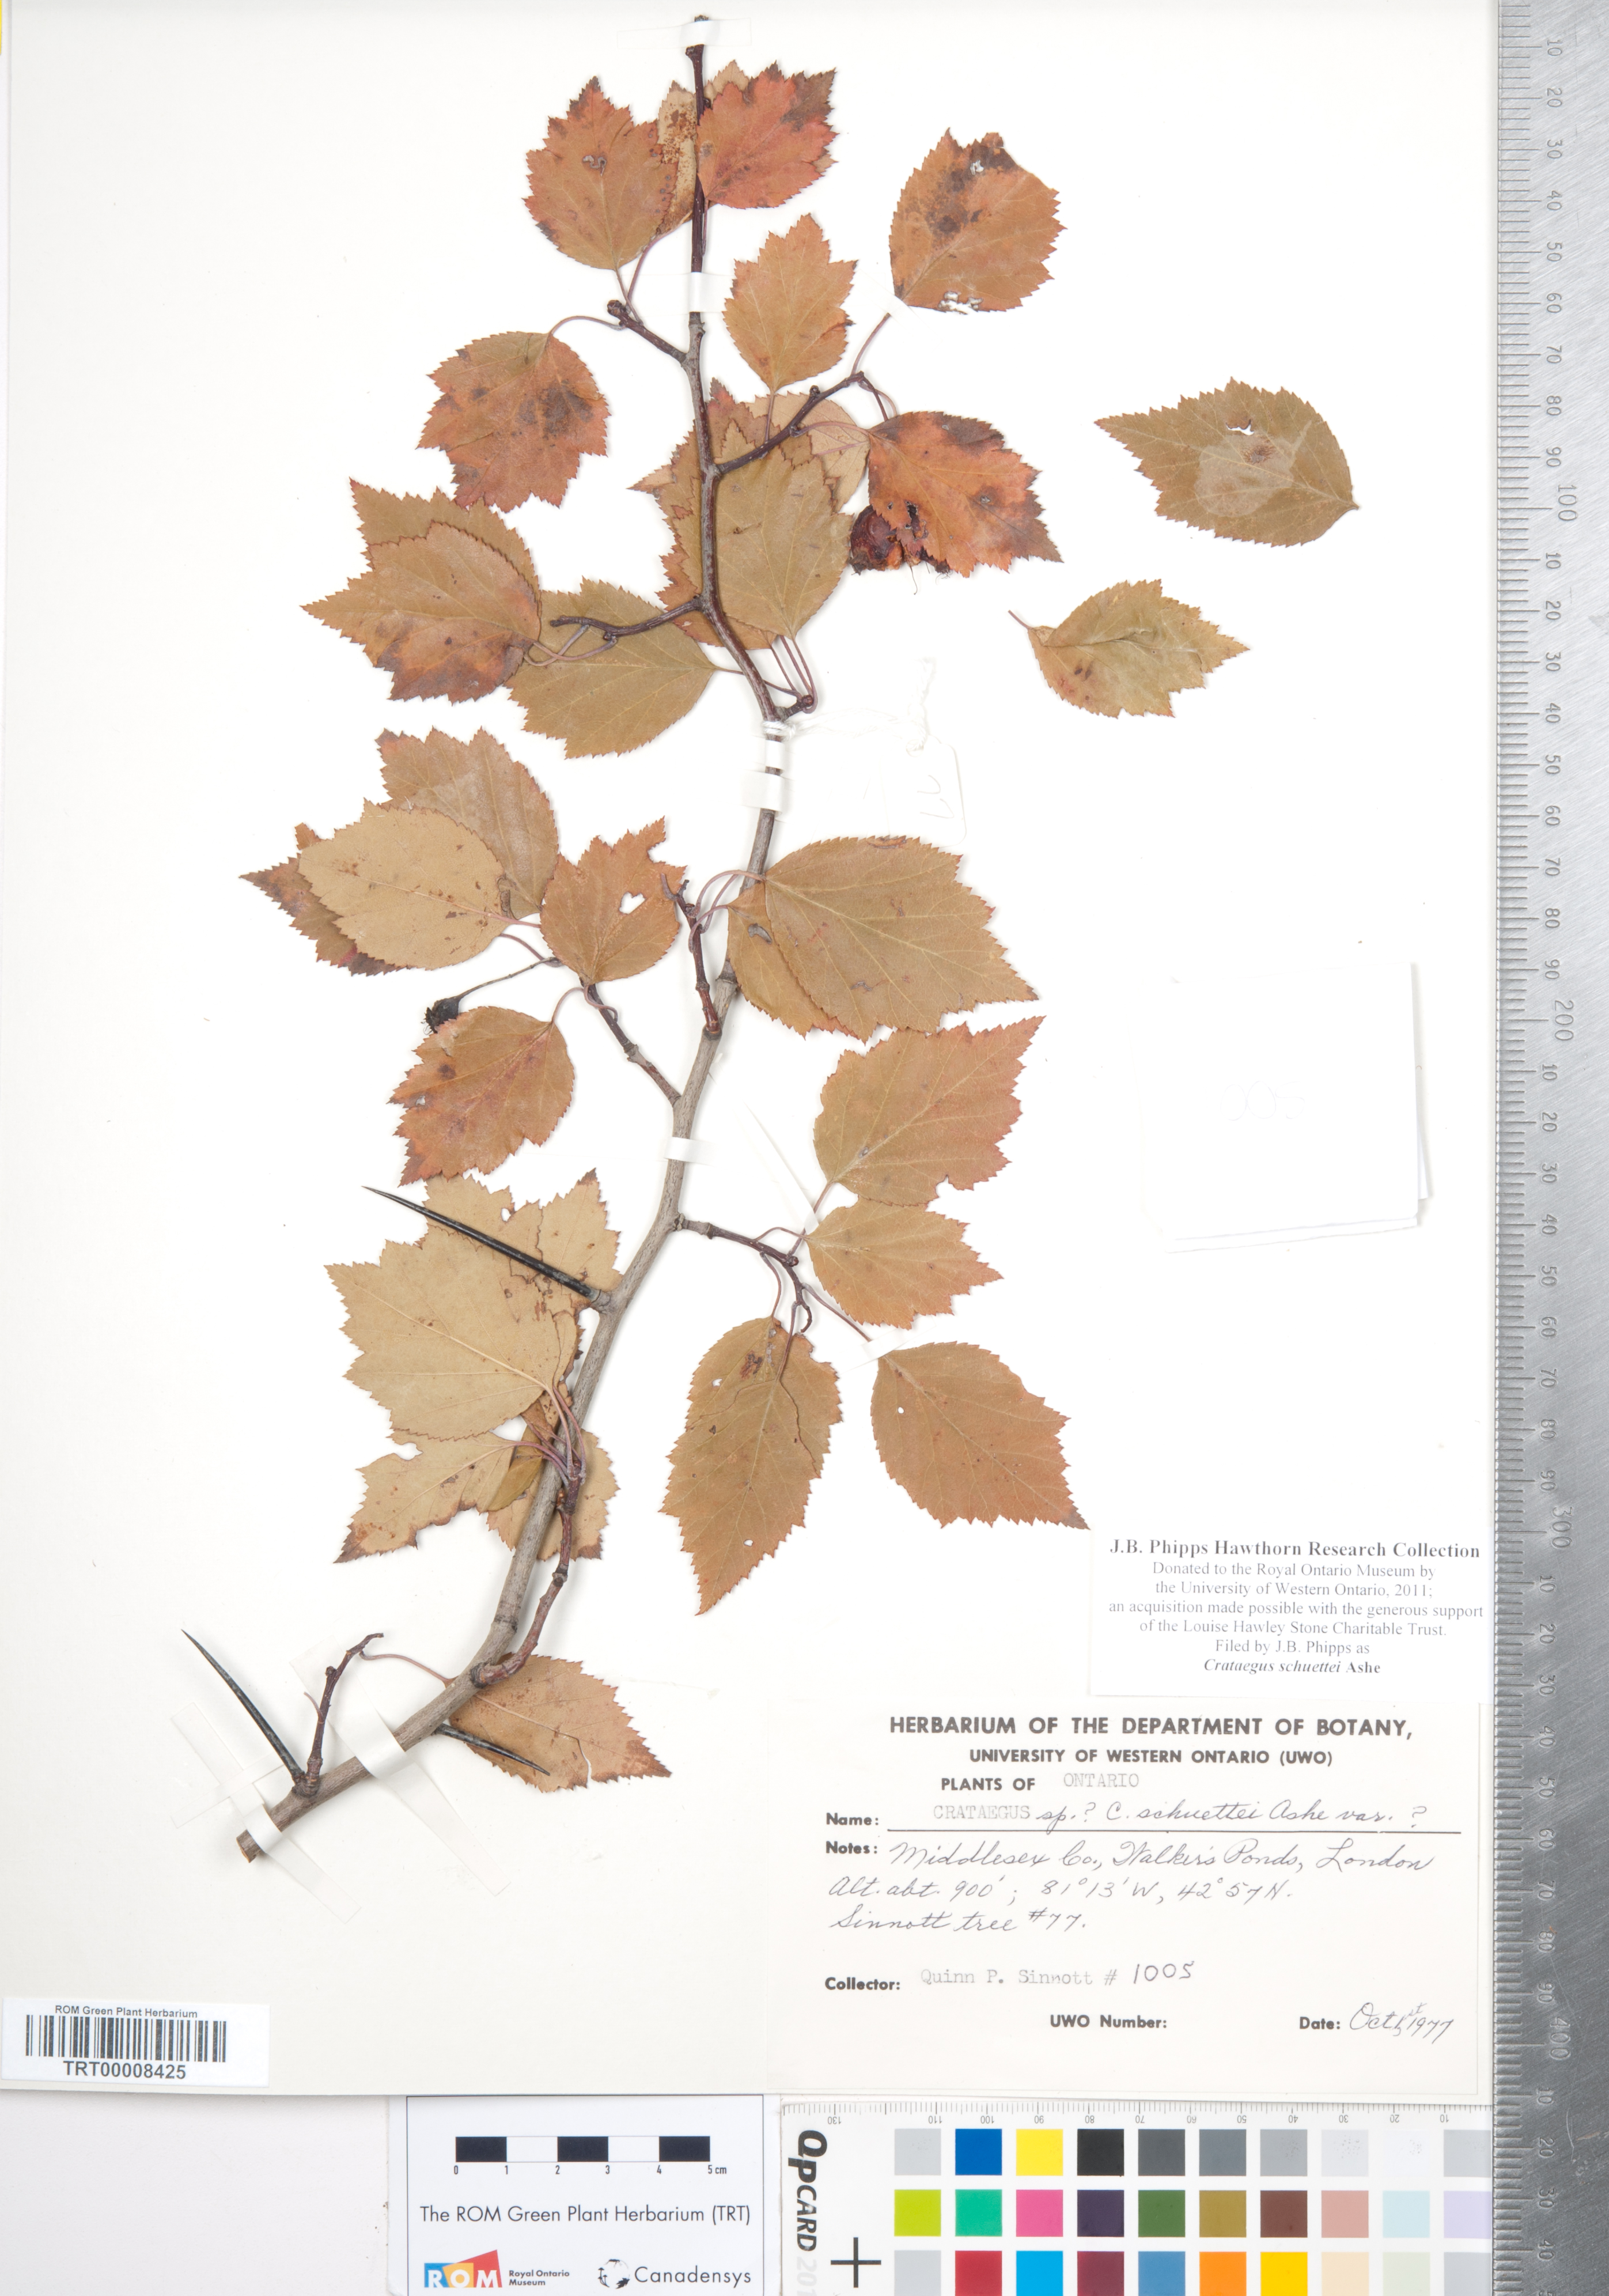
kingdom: Plantae
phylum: Tracheophyta
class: Magnoliopsida
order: Rosales
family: Rosaceae
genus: Crataegus
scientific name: Crataegus schuettei
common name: Schuette's hawthorn
